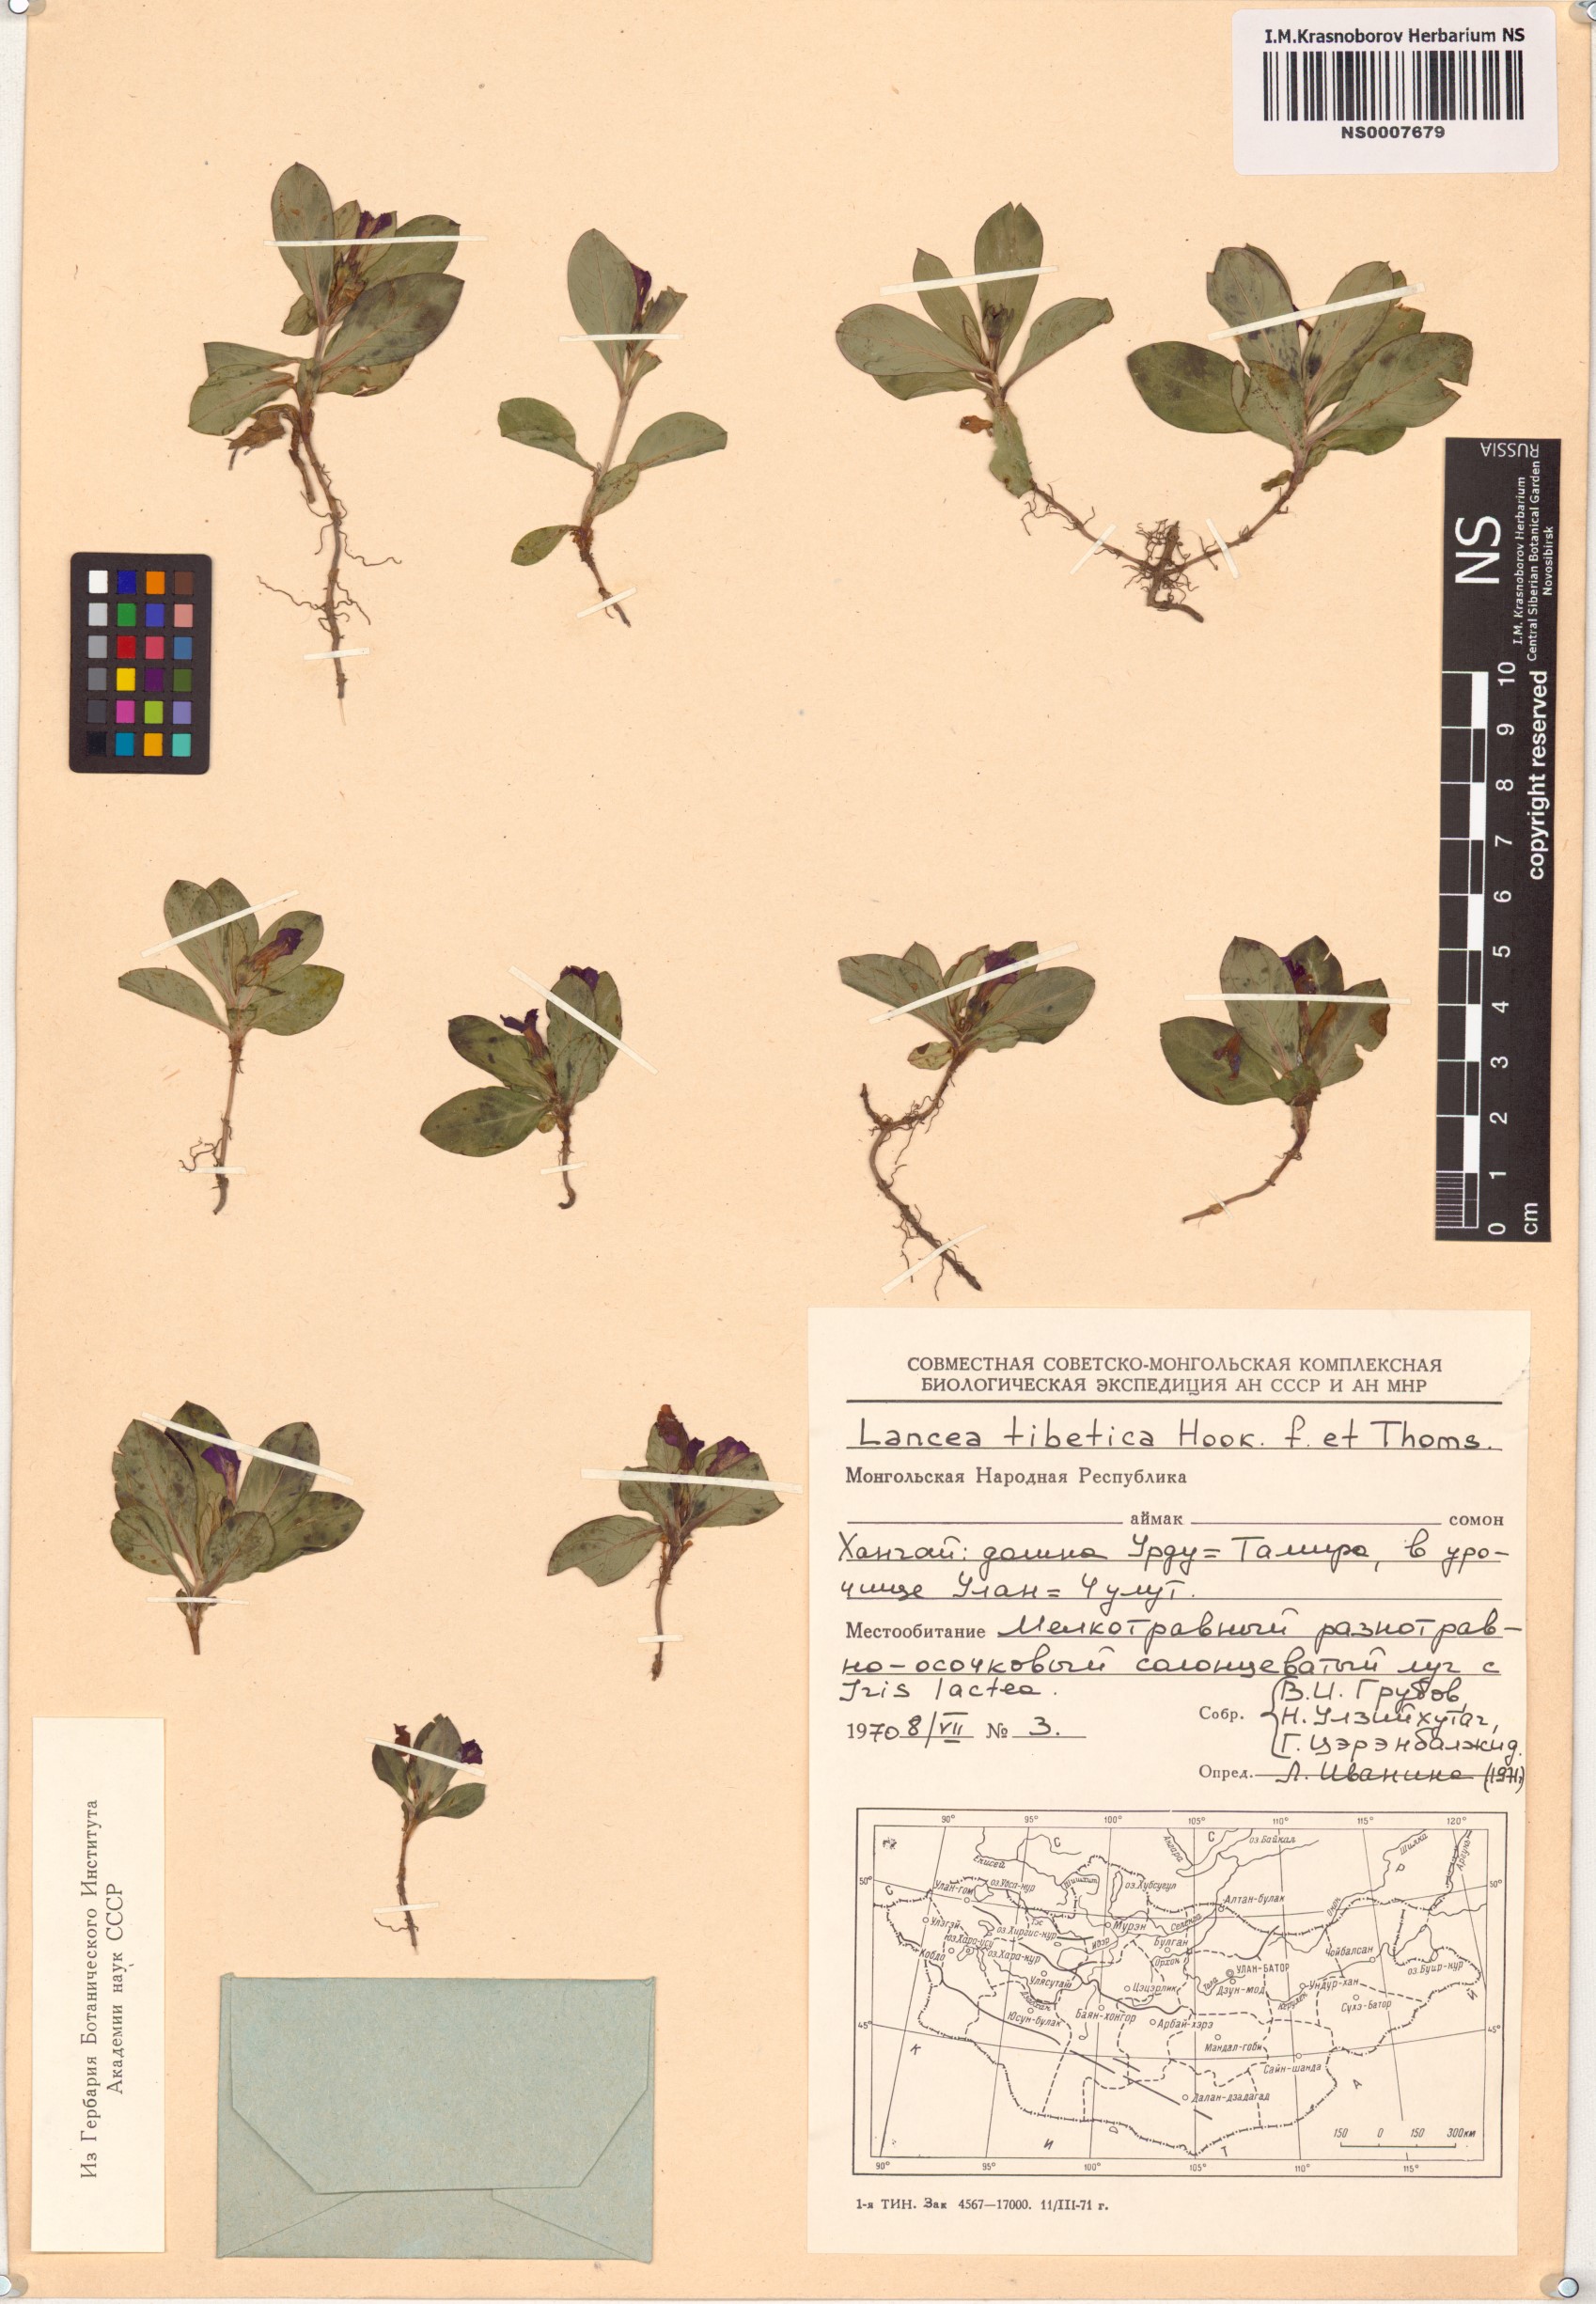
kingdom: Plantae
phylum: Tracheophyta
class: Magnoliopsida
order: Lamiales
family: Mazaceae
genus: Lancea
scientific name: Lancea tibetica
